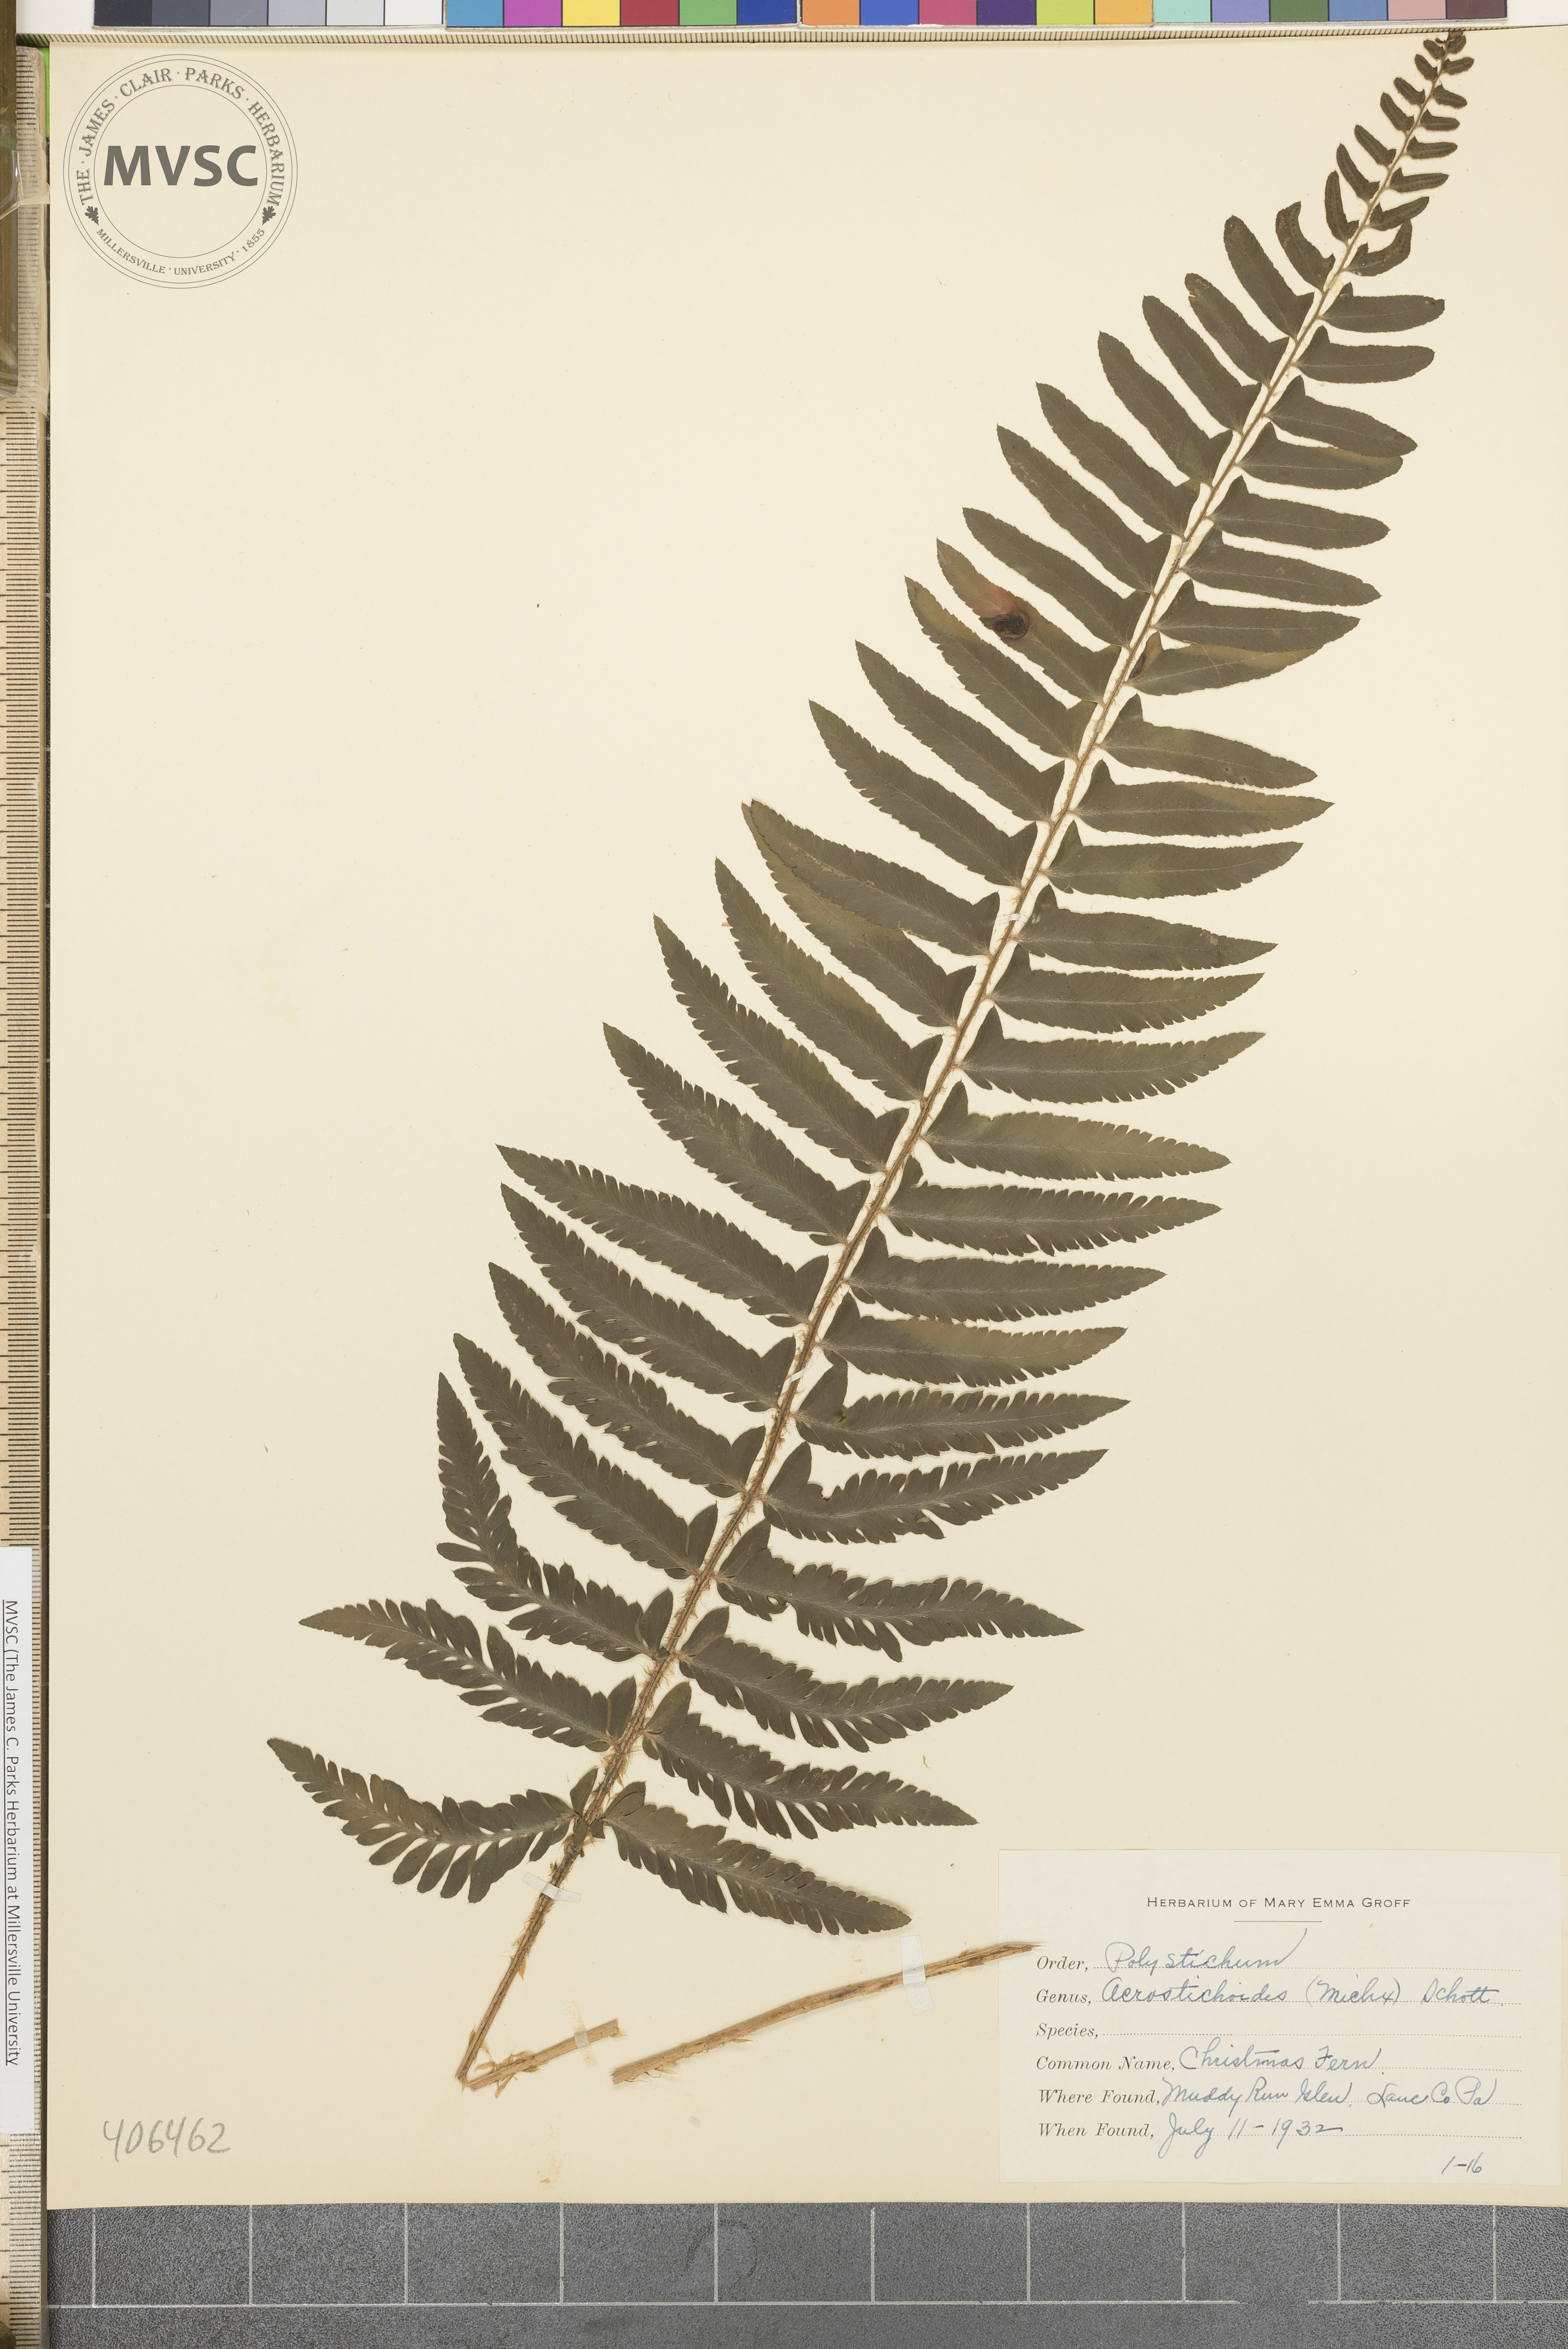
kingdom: Plantae
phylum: Tracheophyta
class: Polypodiopsida
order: Polypodiales
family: Dryopteridaceae
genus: Polystichum
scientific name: Polystichum acrostichoides
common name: Christmas fern
